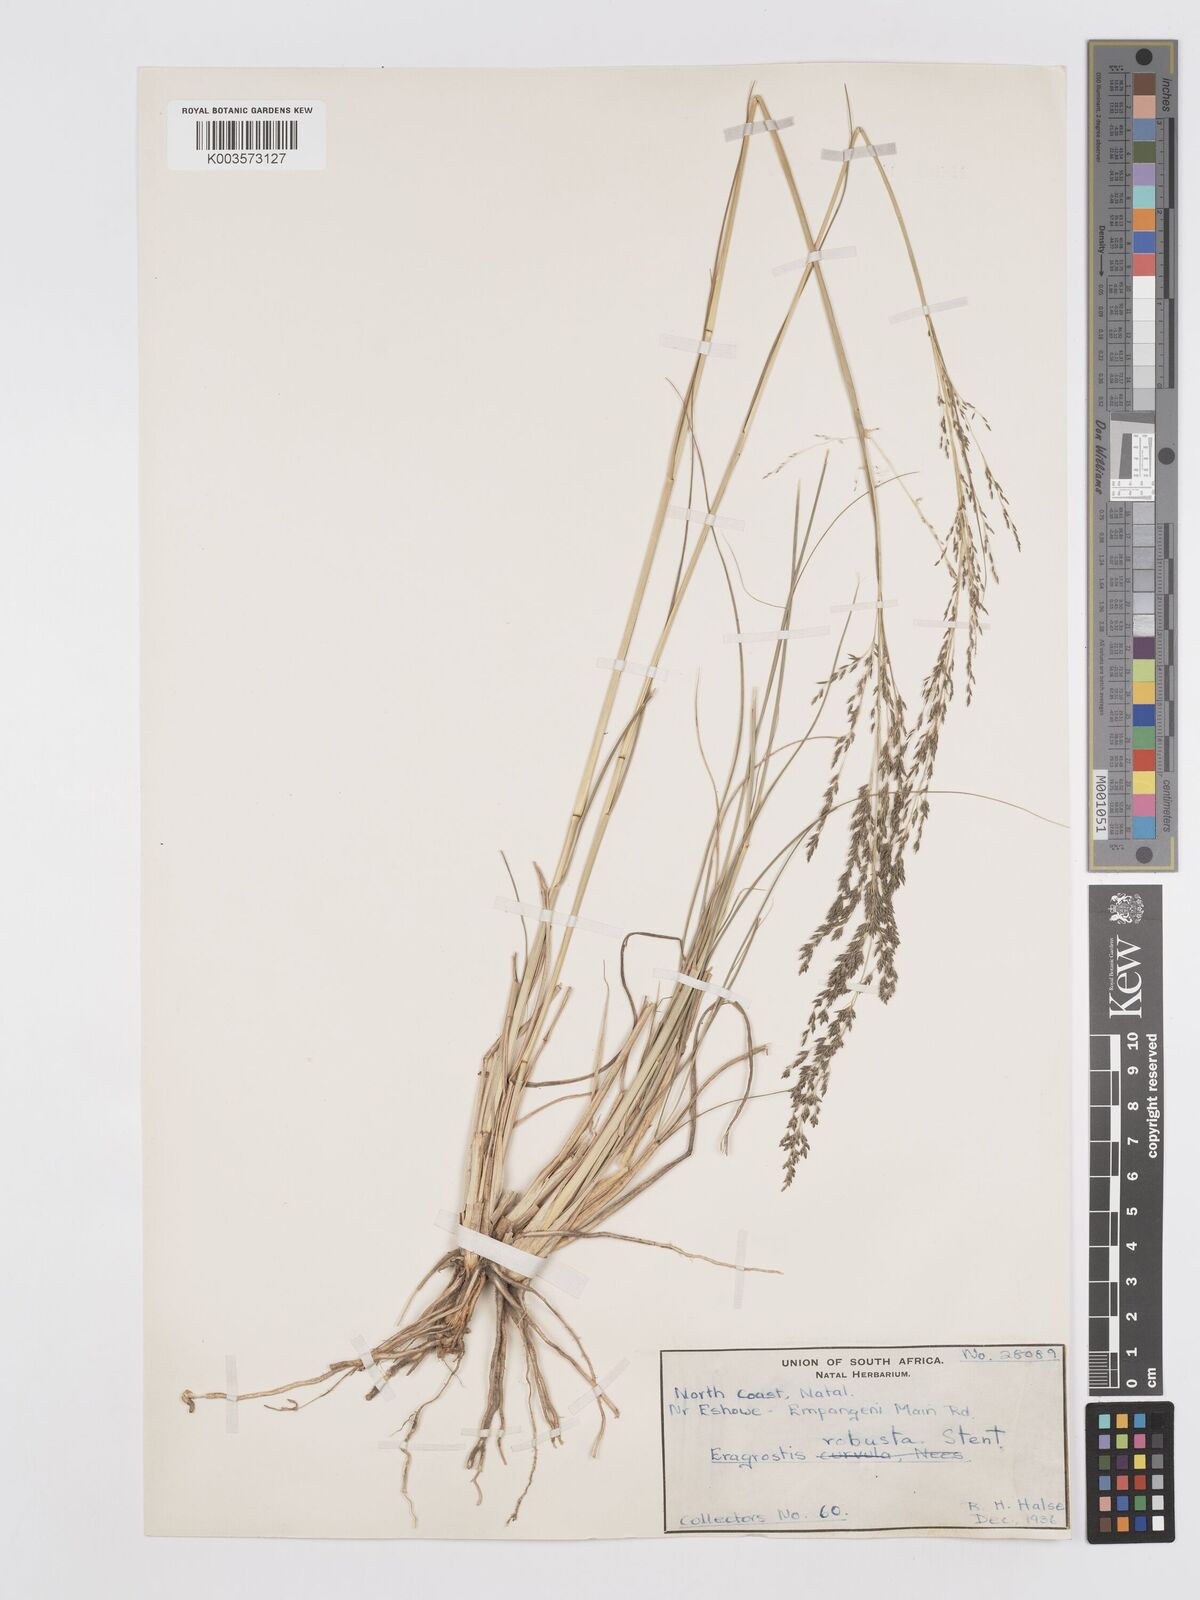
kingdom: Plantae
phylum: Tracheophyta
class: Liliopsida
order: Poales
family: Poaceae
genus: Eragrostis
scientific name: Eragrostis curvula
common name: African love-grass
